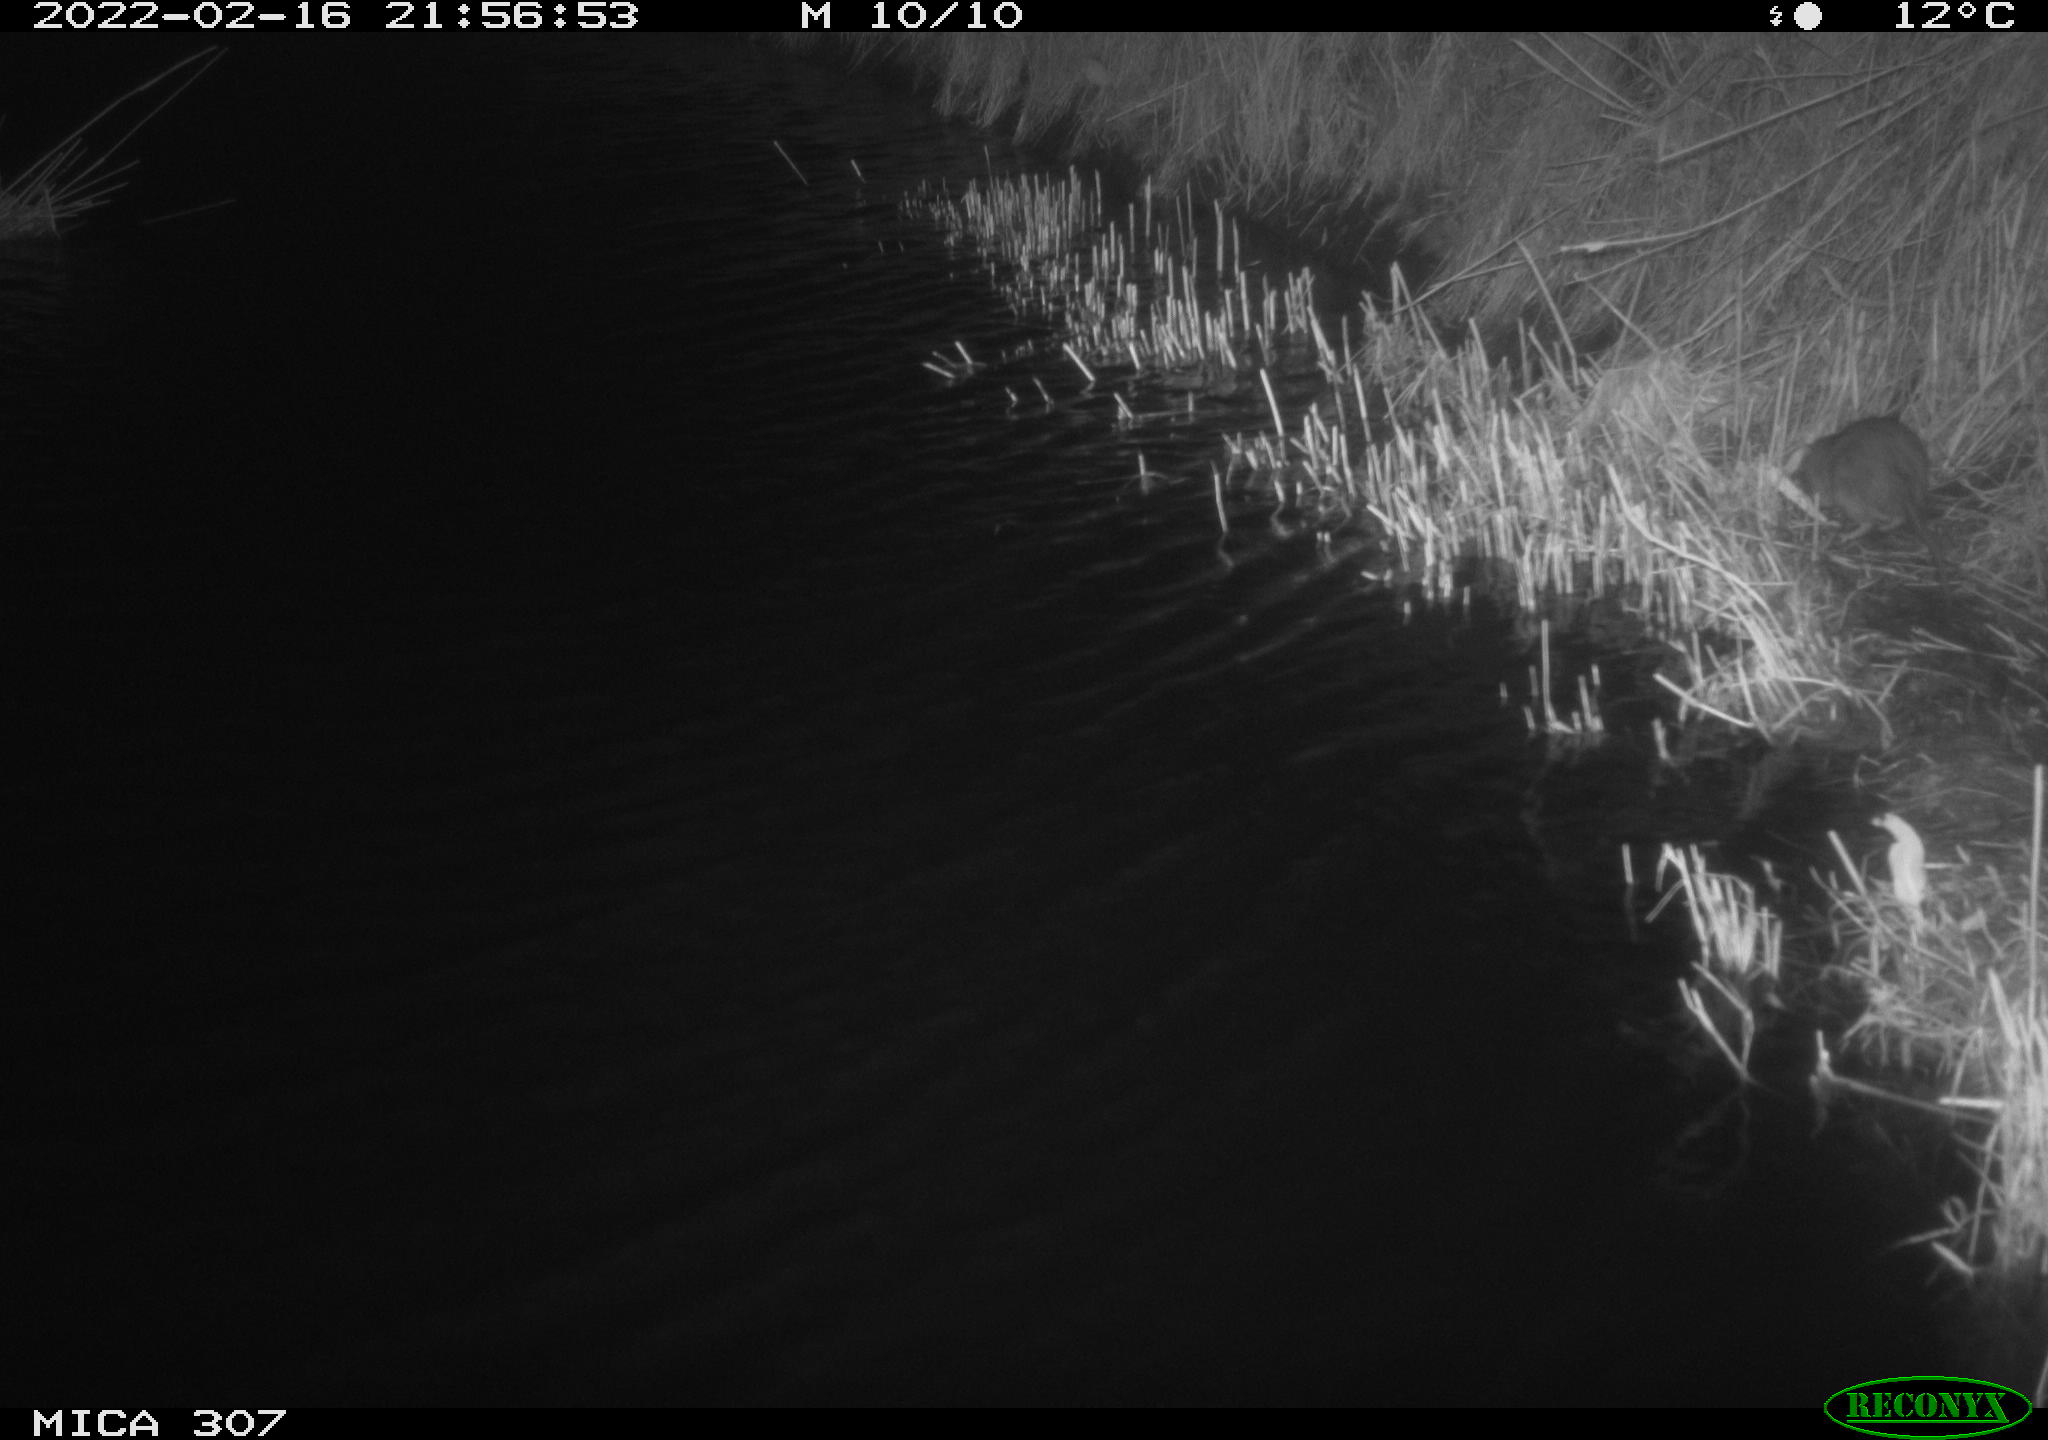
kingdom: Animalia
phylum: Chordata
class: Mammalia
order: Rodentia
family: Muridae
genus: Rattus
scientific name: Rattus norvegicus
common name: Brown rat
